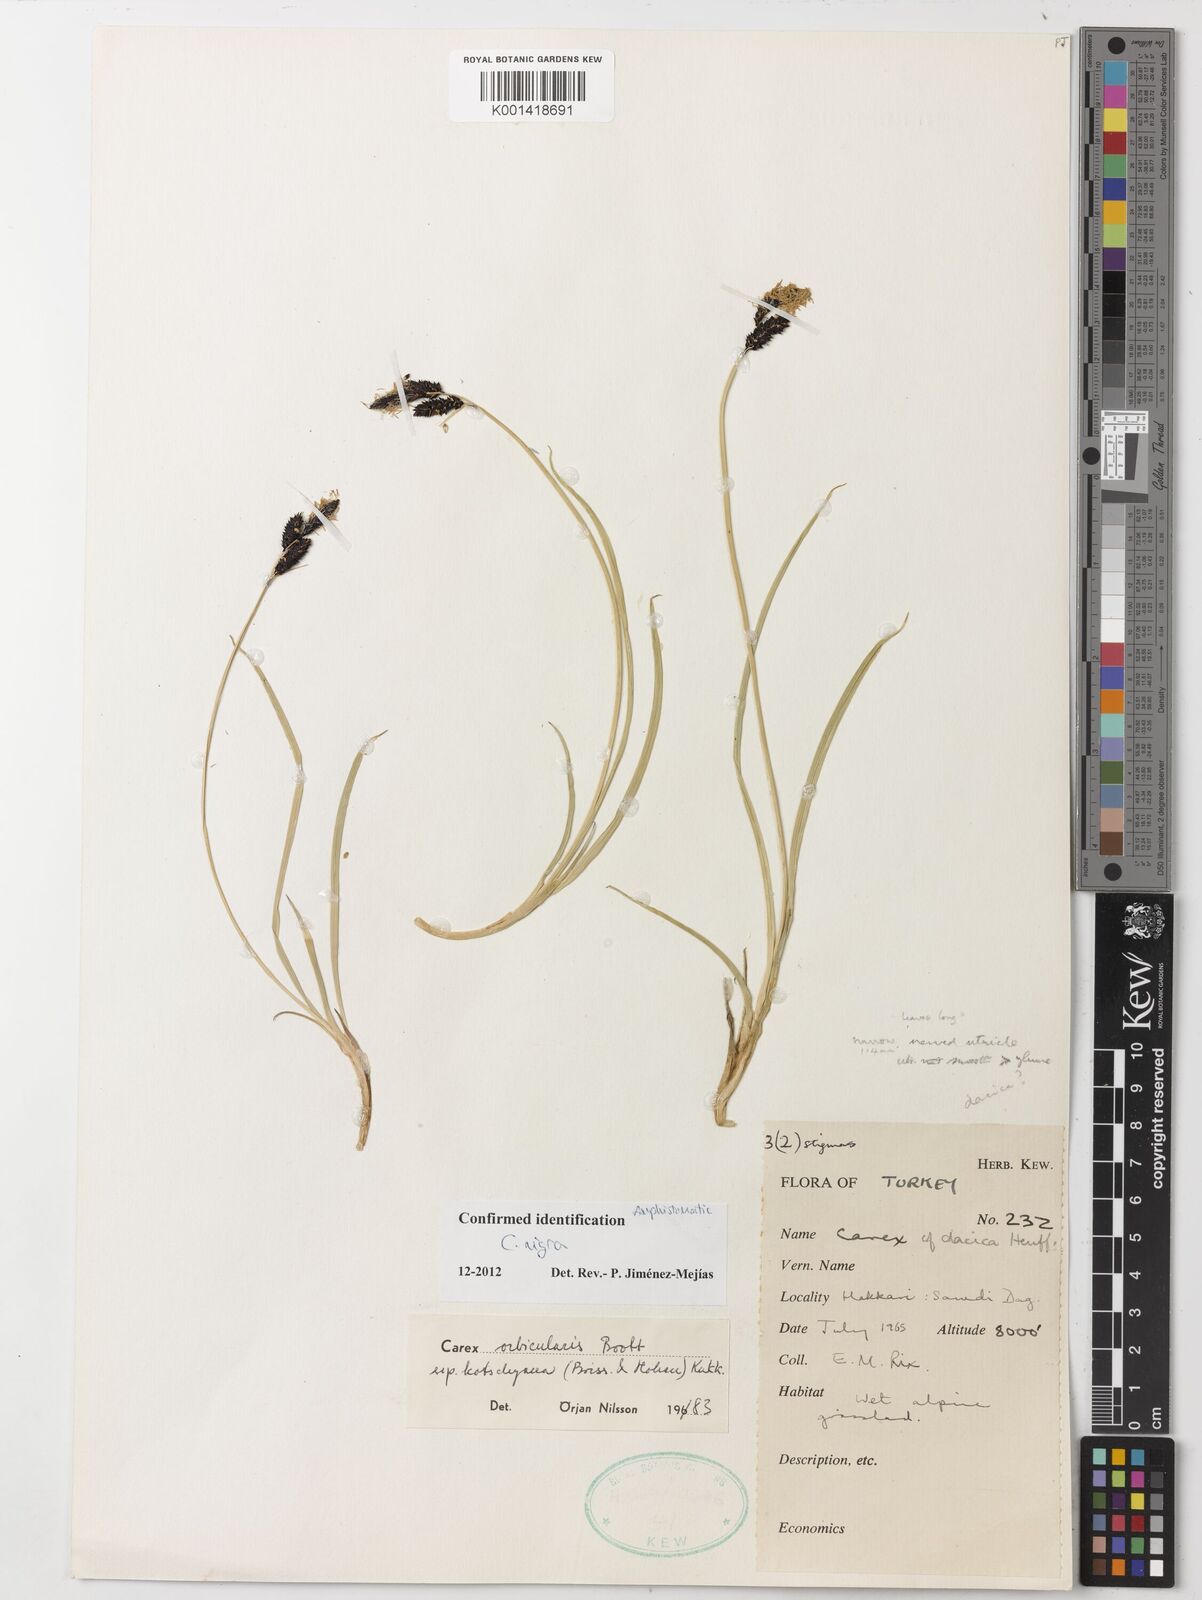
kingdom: Plantae
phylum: Tracheophyta
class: Liliopsida
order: Poales
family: Cyperaceae
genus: Carex
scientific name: Carex nigra
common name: Common sedge
